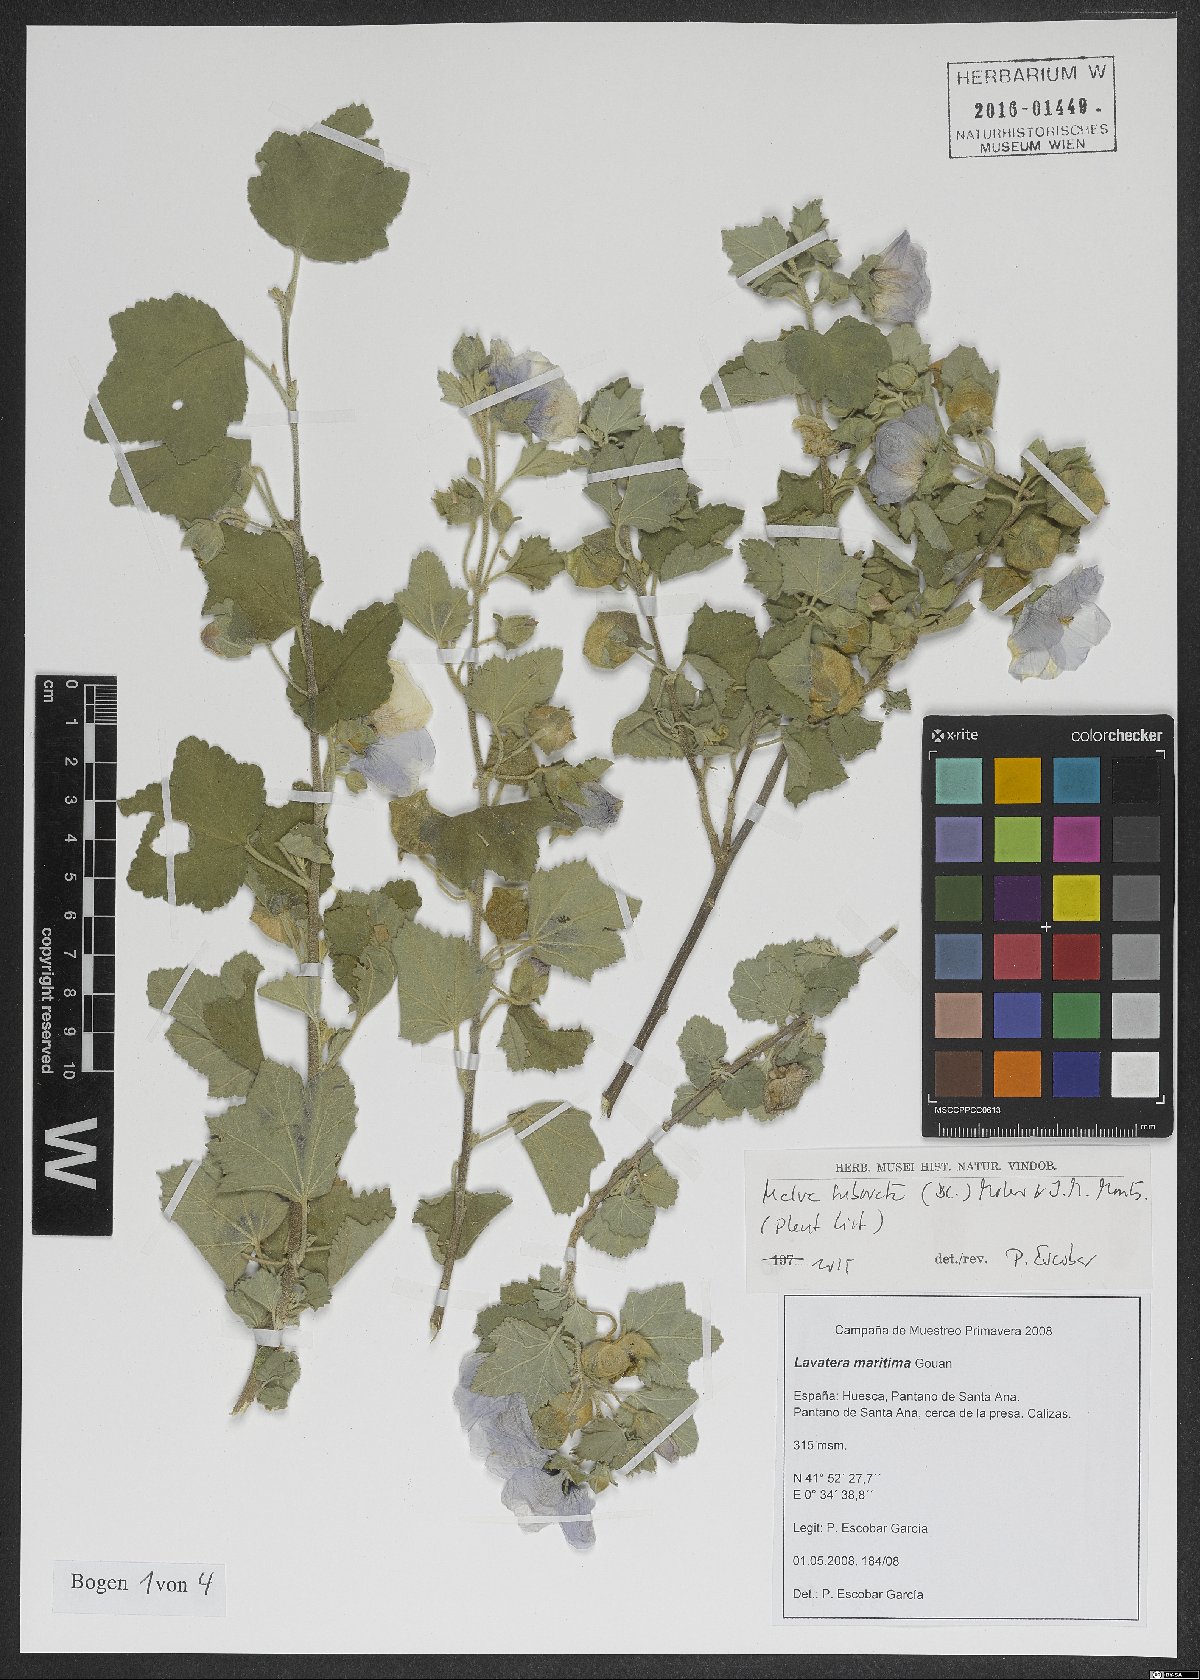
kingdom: Plantae
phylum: Tracheophyta
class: Magnoliopsida
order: Malvales
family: Malvaceae
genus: Malva
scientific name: Malva subovata
